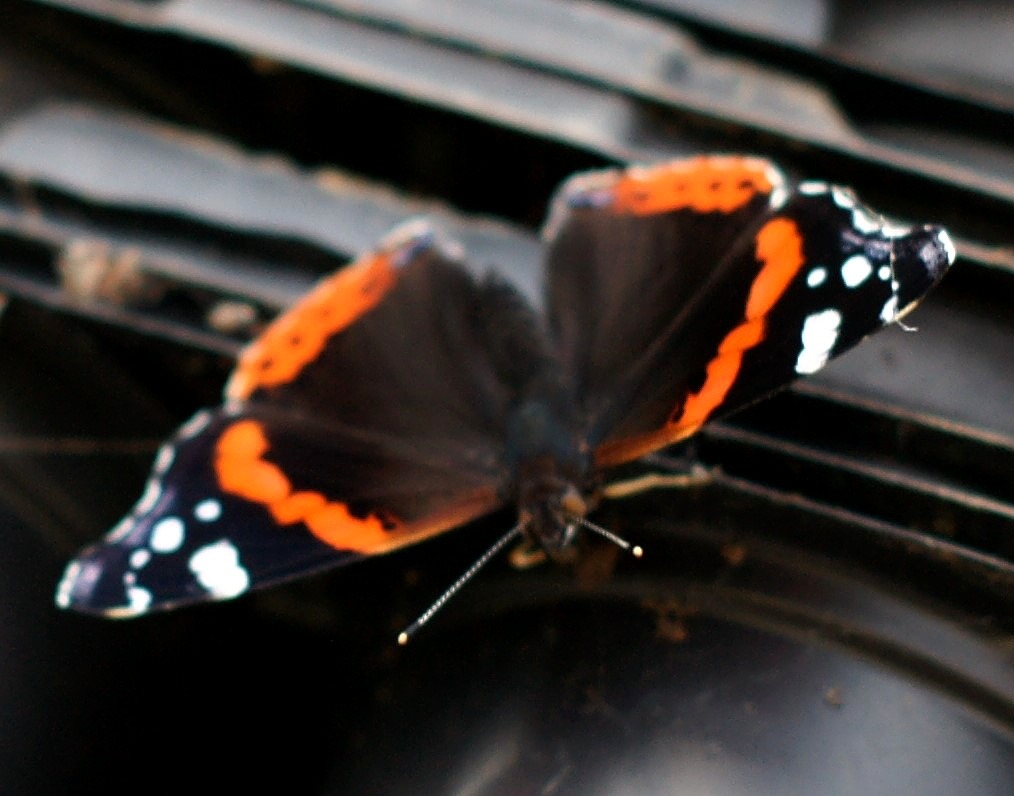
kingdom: Animalia
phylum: Arthropoda
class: Insecta
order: Lepidoptera
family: Nymphalidae
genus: Vanessa
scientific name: Vanessa atalanta
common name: Admiral
